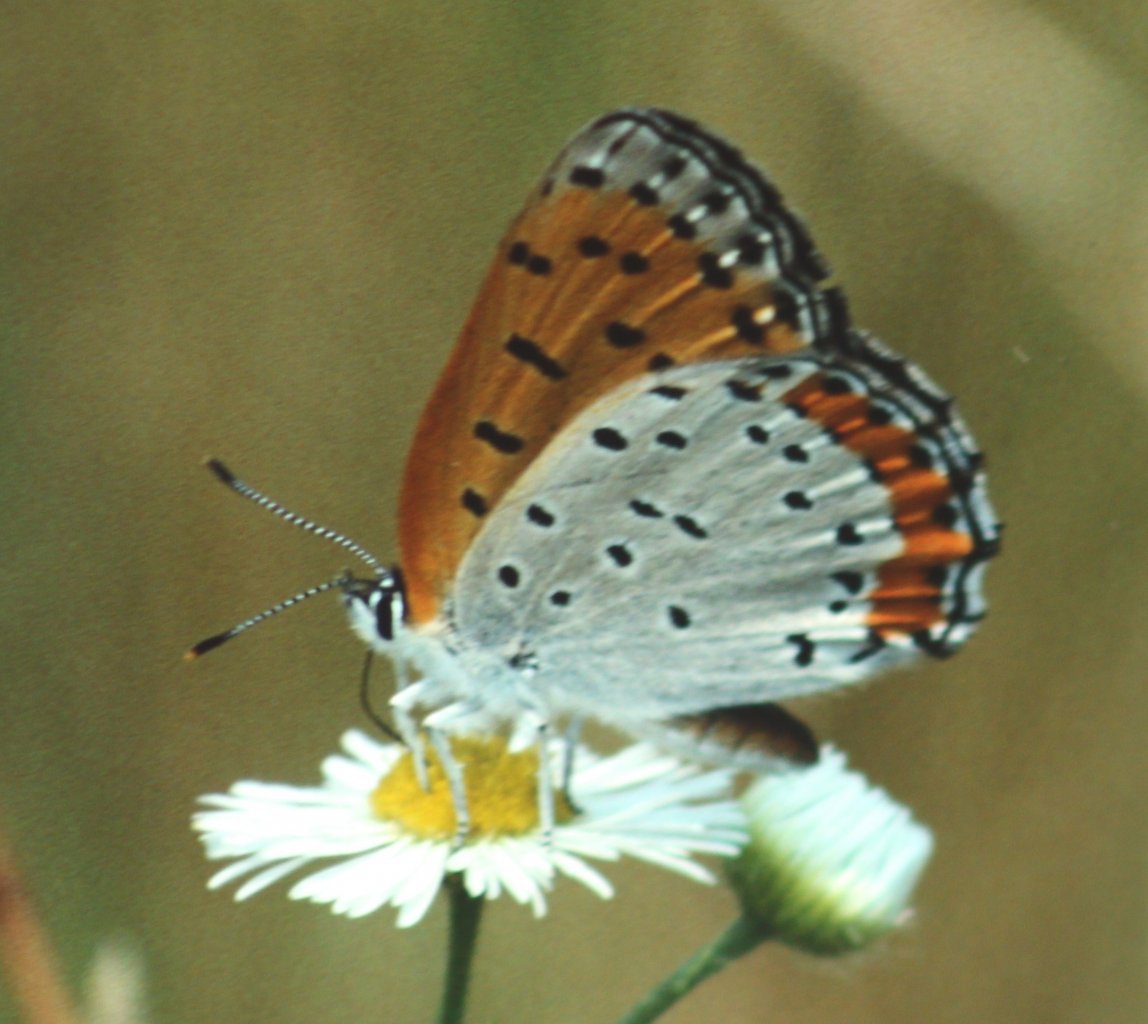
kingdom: Animalia
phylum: Arthropoda
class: Insecta
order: Lepidoptera
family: Sesiidae
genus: Sesia
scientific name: Sesia Lycaena hyllus
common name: Bronze Copper
